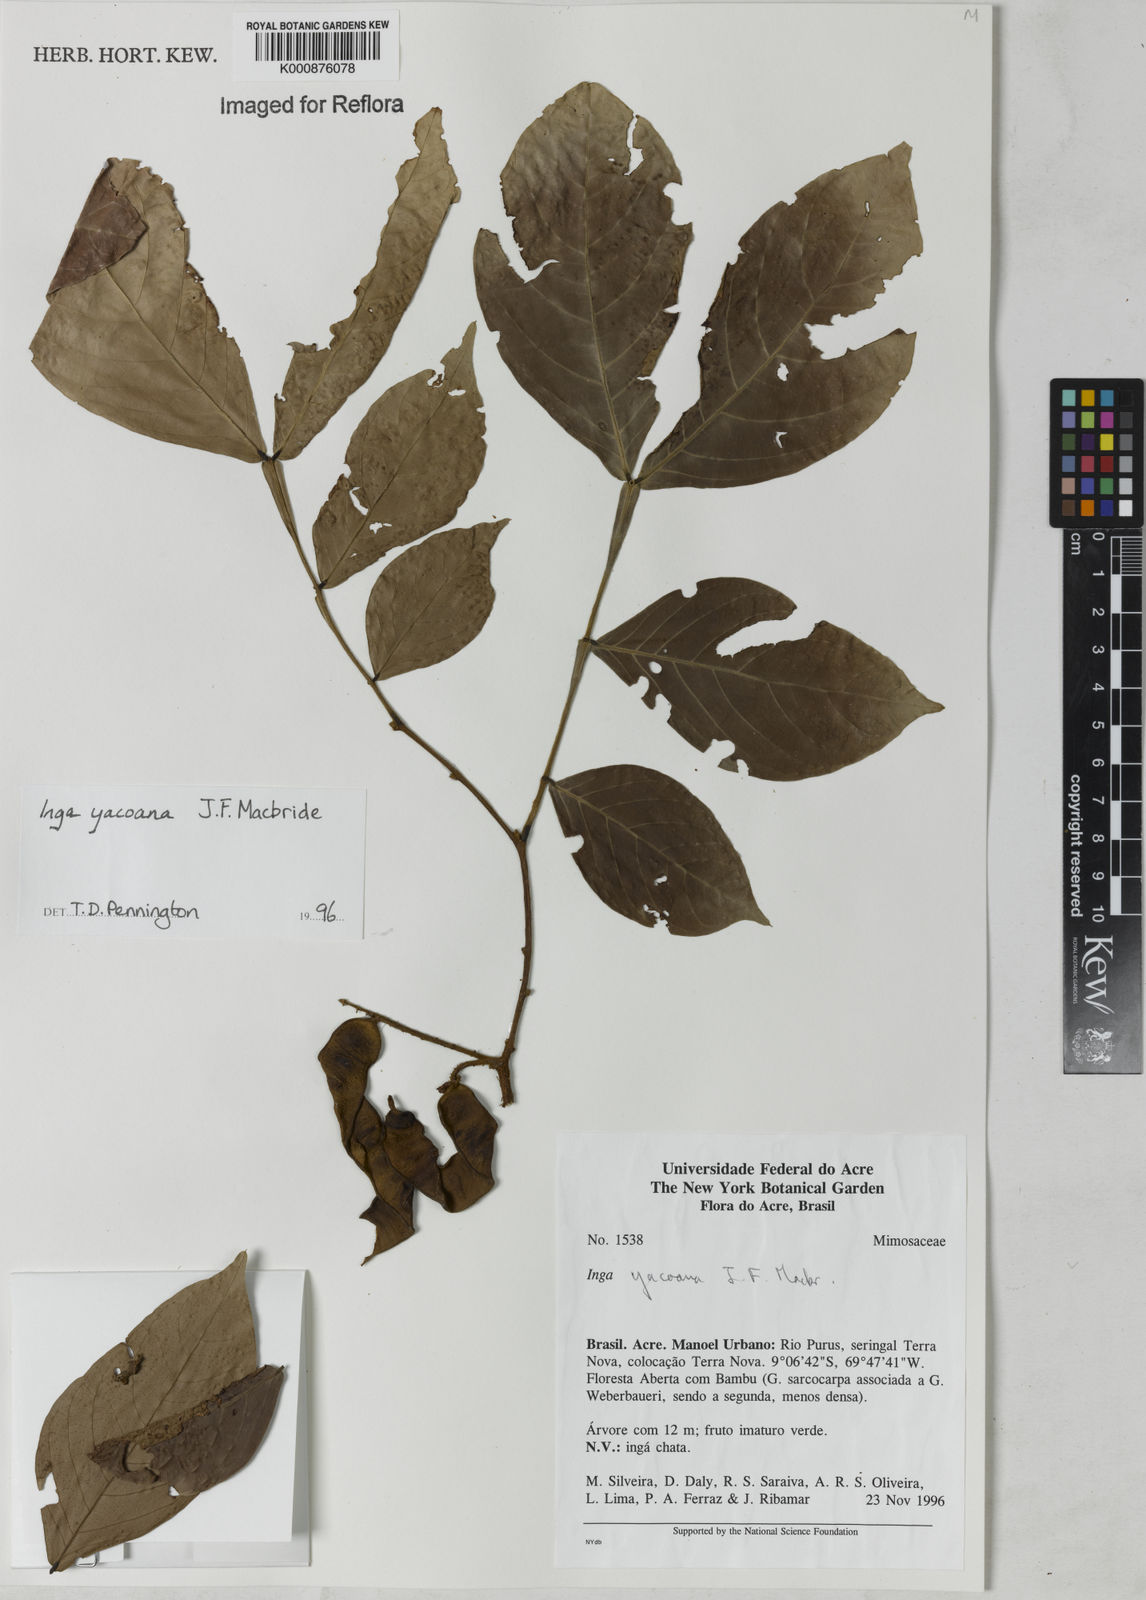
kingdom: Plantae
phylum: Tracheophyta
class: Magnoliopsida
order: Fabales
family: Fabaceae
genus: Inga
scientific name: Inga yacoana
